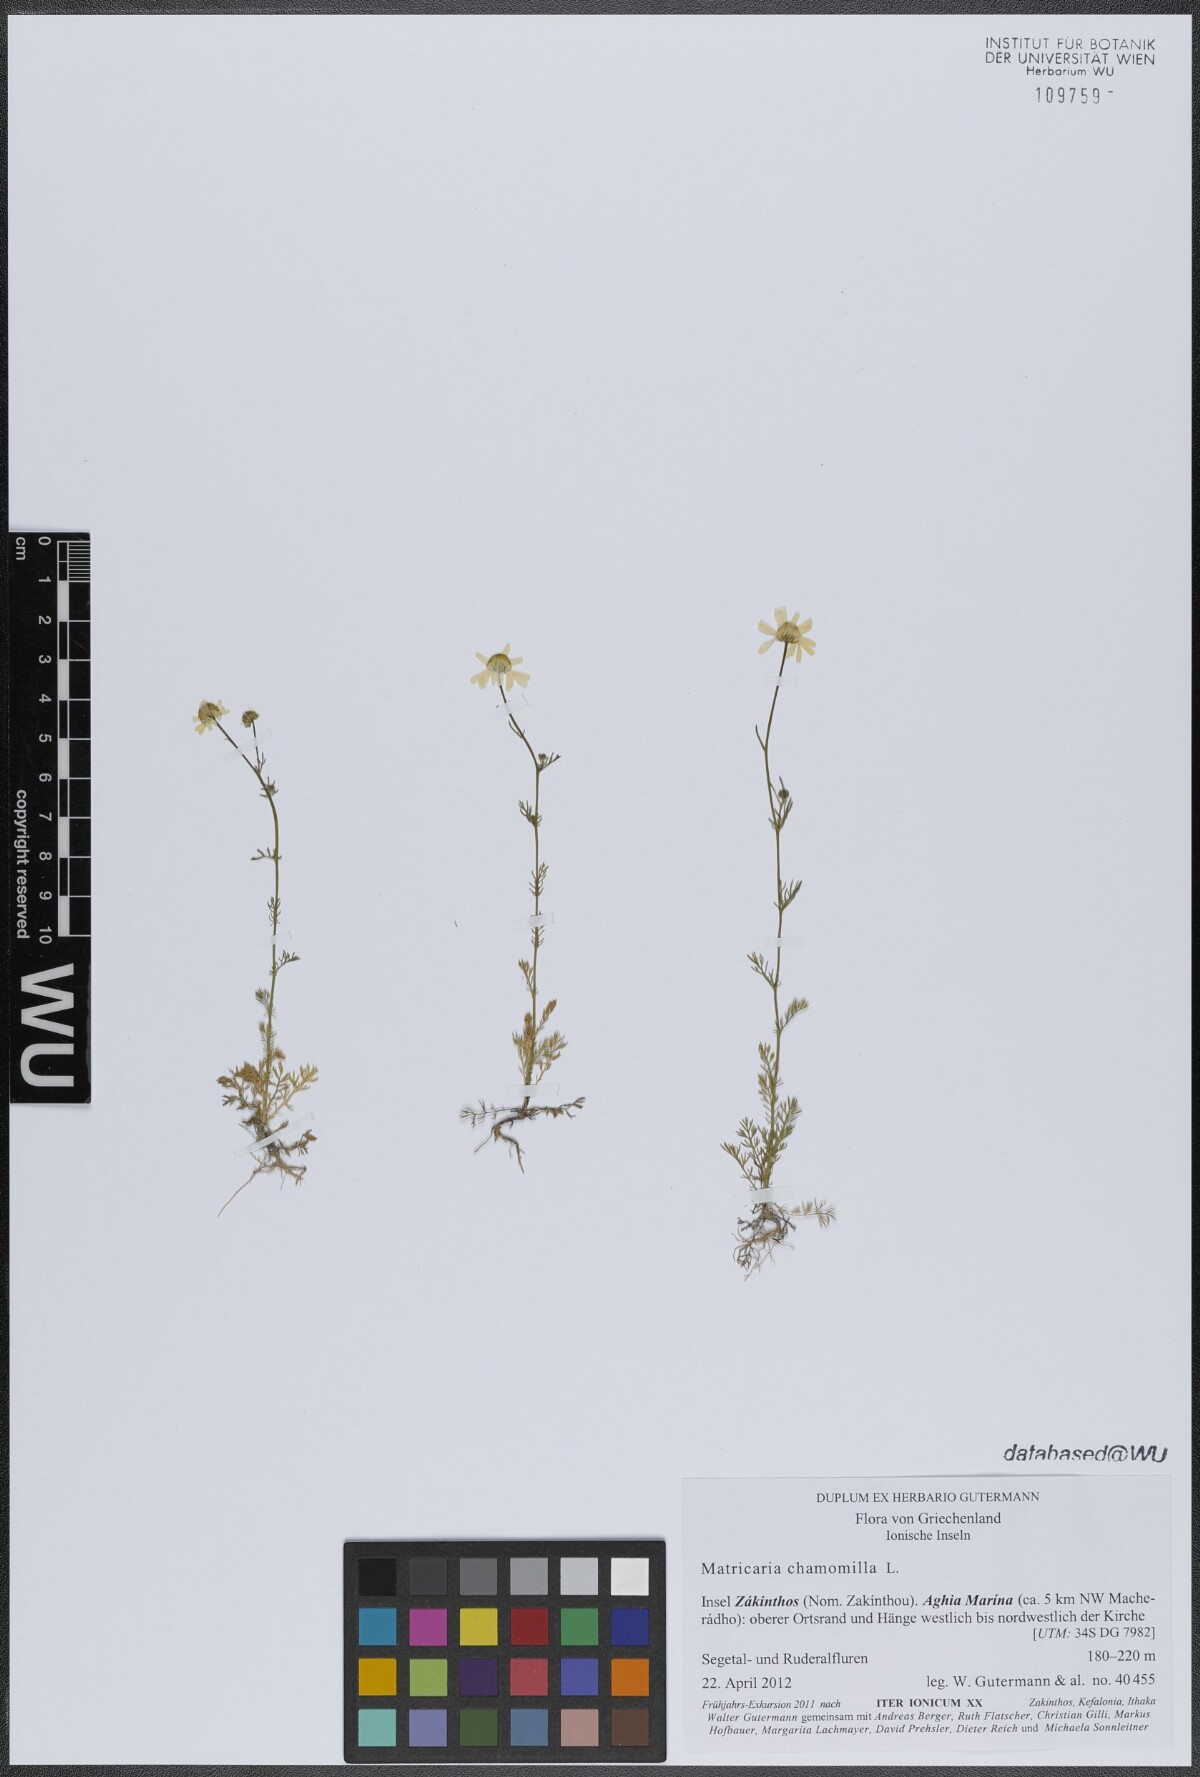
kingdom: Plantae
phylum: Tracheophyta
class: Magnoliopsida
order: Fabales
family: Fabaceae
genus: Anthyllis
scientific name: Anthyllis vulneraria
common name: Kidney vetch
